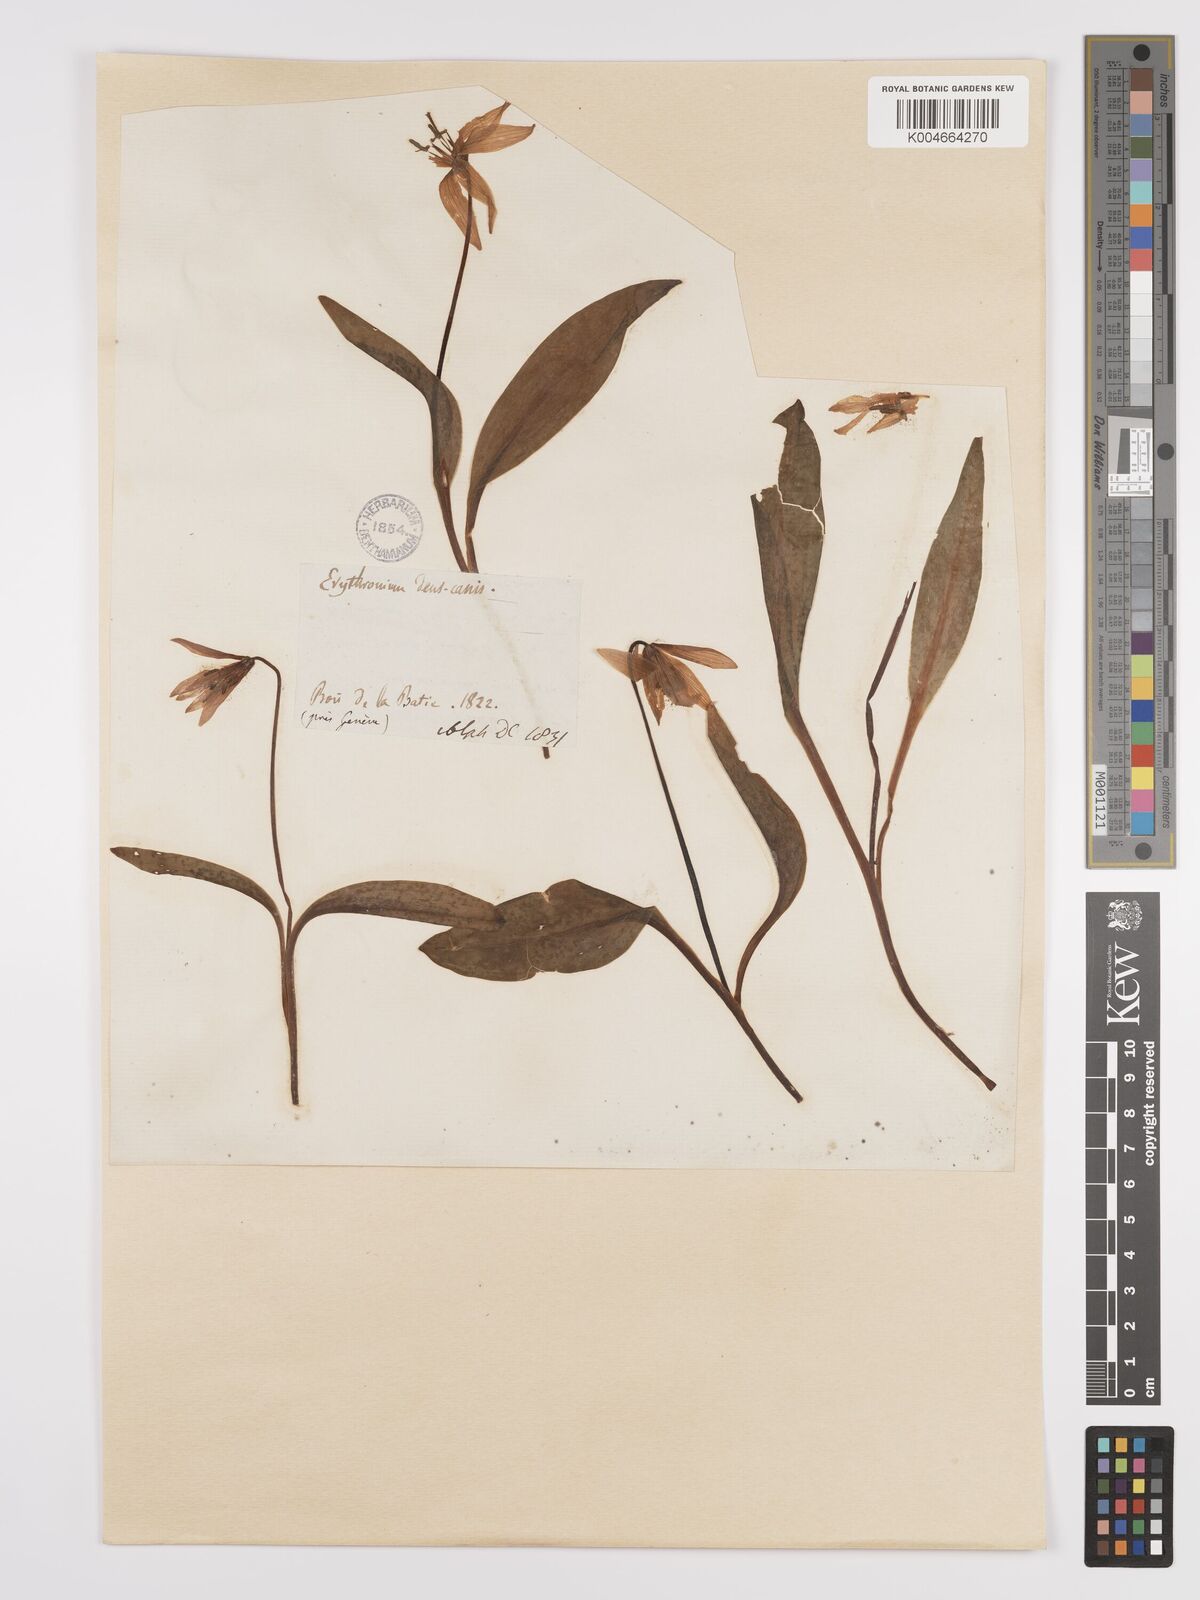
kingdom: Plantae
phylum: Tracheophyta
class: Liliopsida
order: Liliales
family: Liliaceae
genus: Erythronium
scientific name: Erythronium dens-canis
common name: Dog's-tooth-violet
